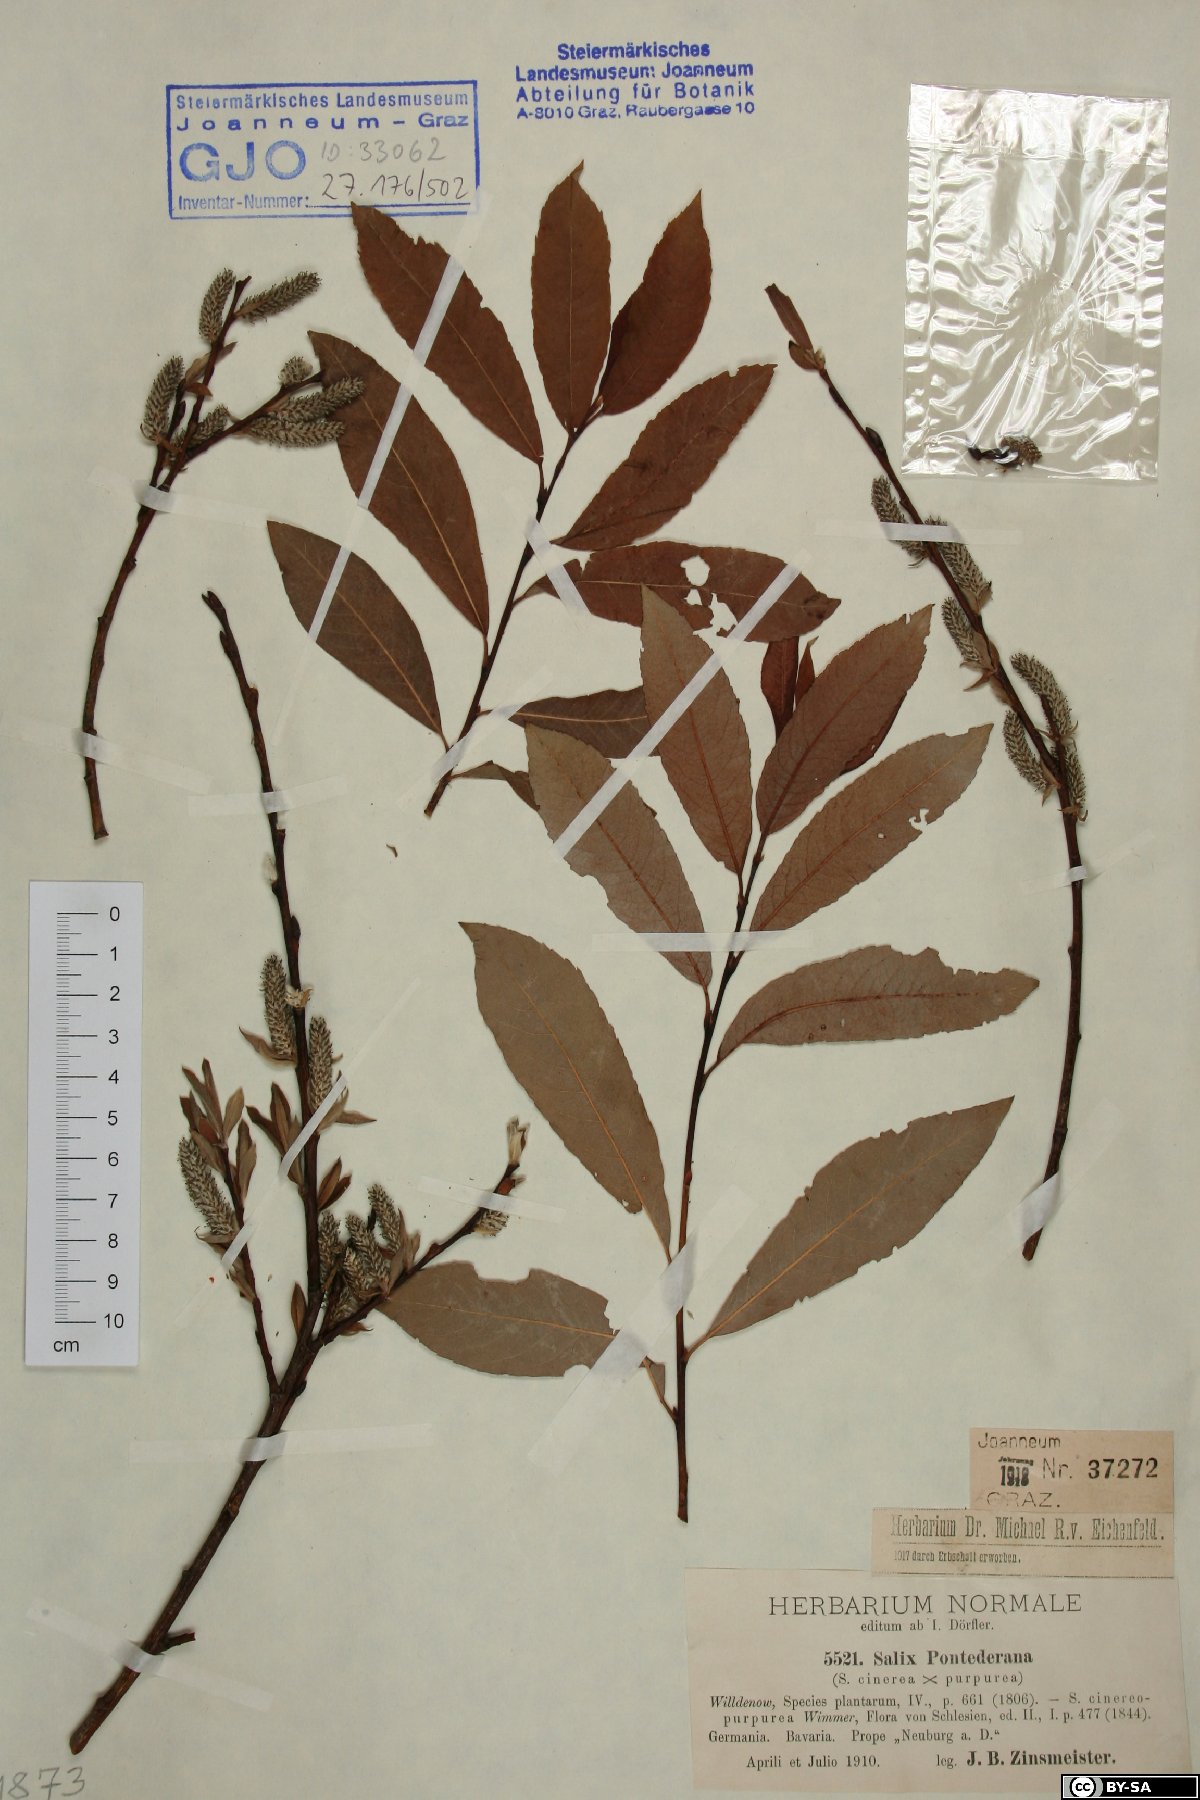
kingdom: Plantae
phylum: Tracheophyta
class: Magnoliopsida
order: Malpighiales
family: Salicaceae
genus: Salix
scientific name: Salix pontederana
